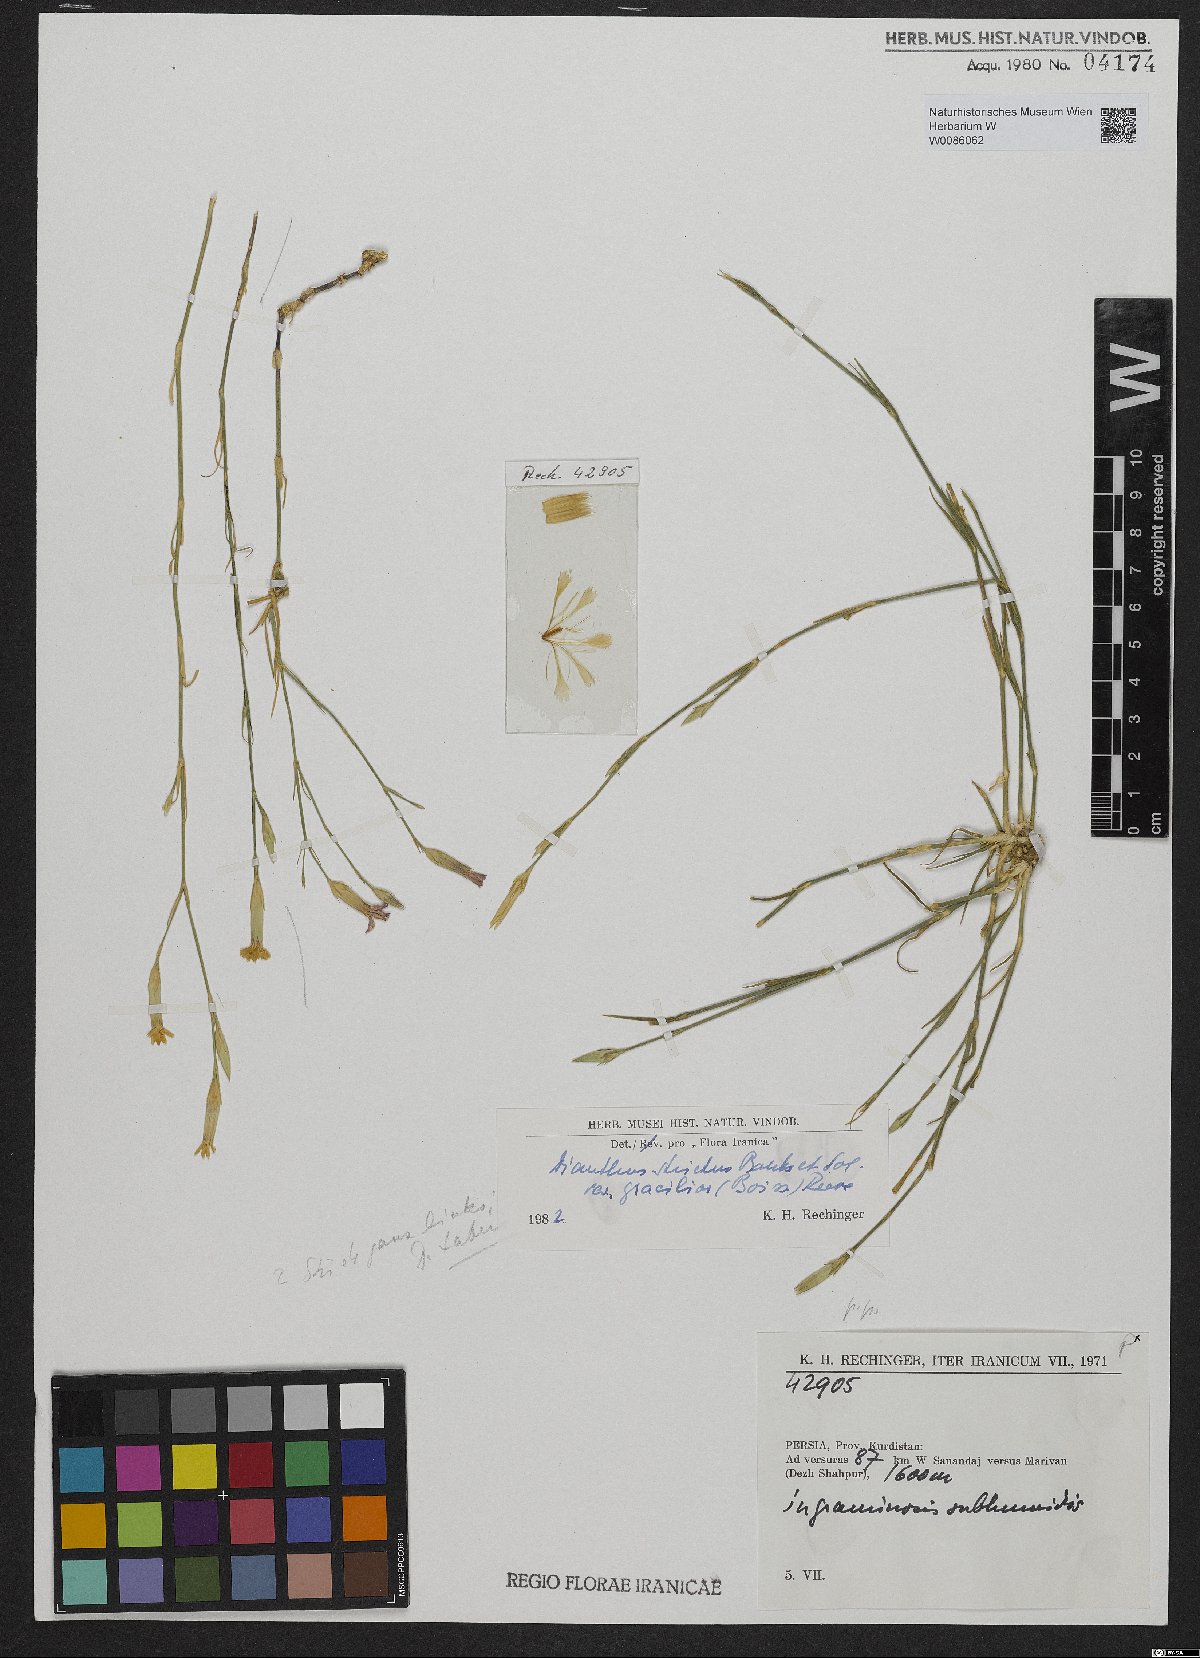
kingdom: Plantae
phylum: Tracheophyta
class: Magnoliopsida
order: Caryophyllales
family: Caryophyllaceae
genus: Dianthus
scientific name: Dianthus strictus
